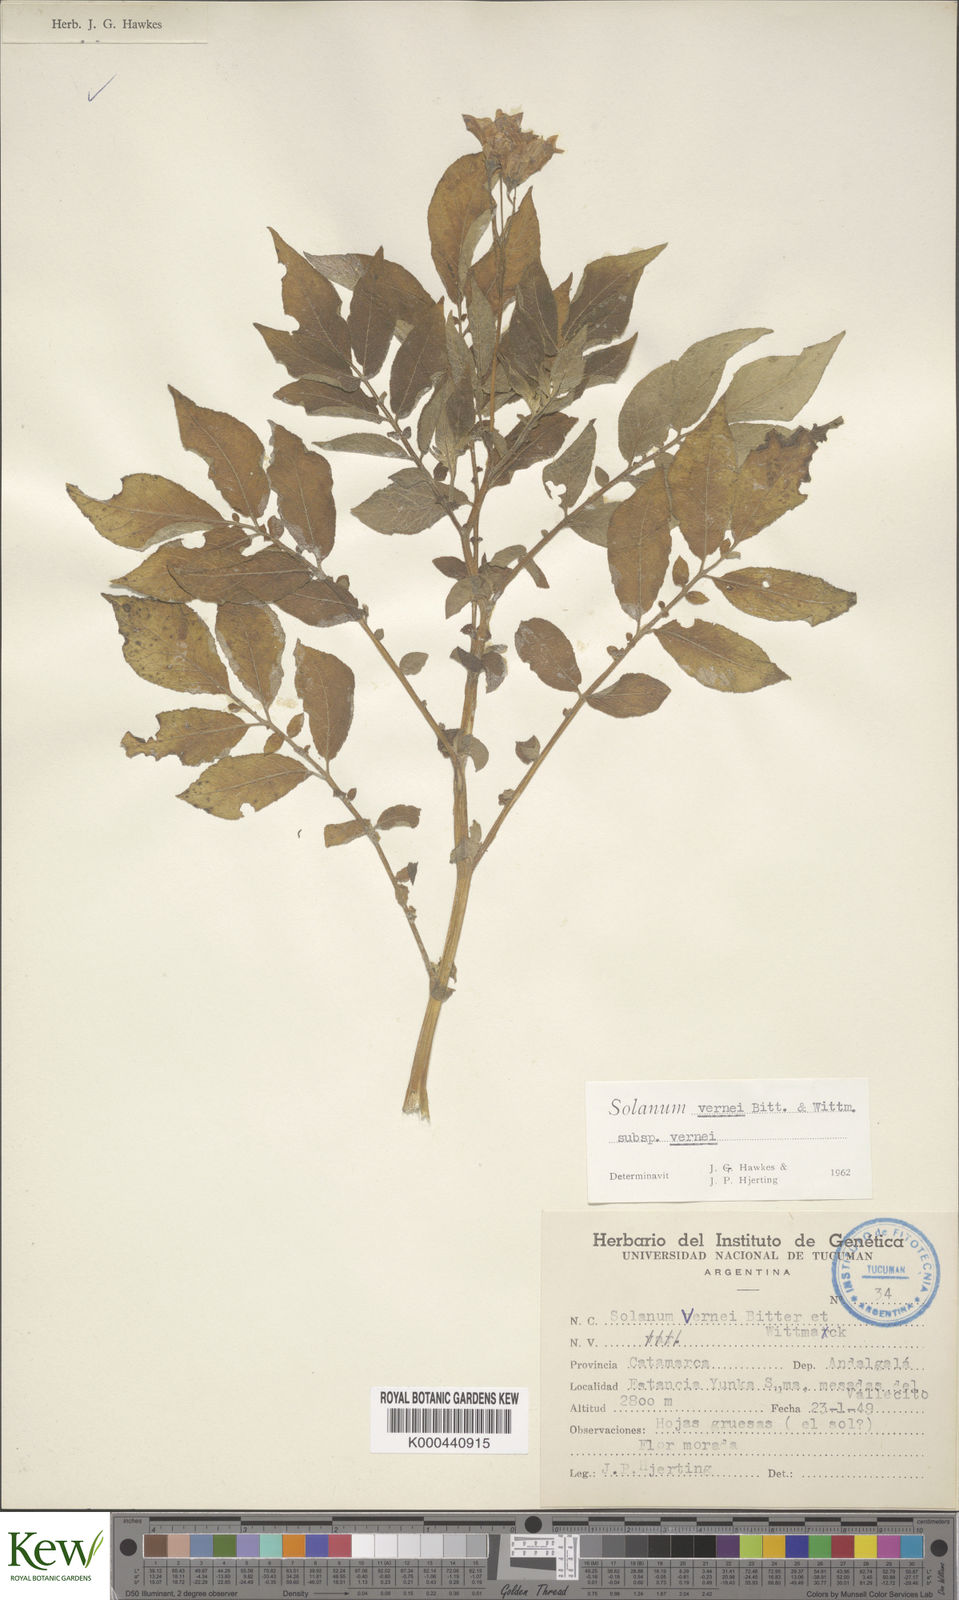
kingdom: Plantae
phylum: Tracheophyta
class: Magnoliopsida
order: Solanales
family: Solanaceae
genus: Solanum
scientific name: Solanum vernei
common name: Purple potato
